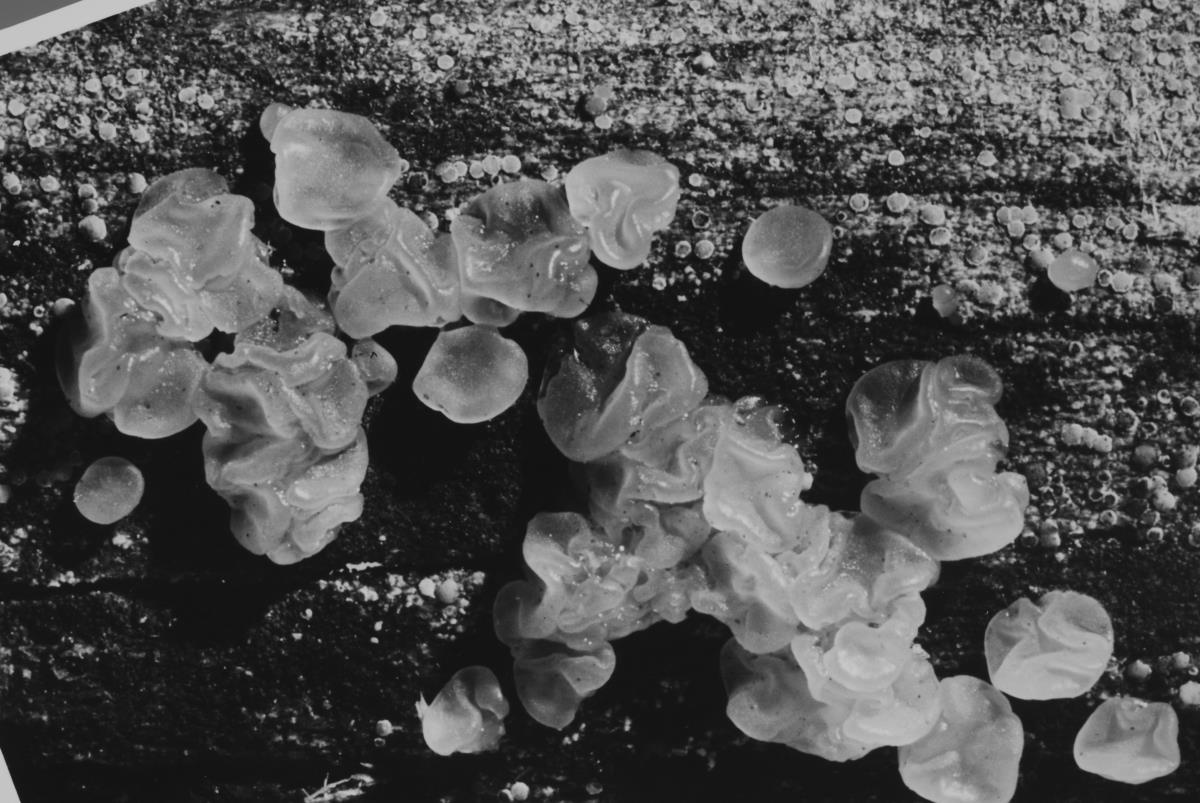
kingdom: Fungi
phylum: Basidiomycota
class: Dacrymycetes
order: Dacrymycetales
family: Dacrymycetaceae
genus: Dacrymyces
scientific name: Dacrymyces stillatus
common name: Common jelly spot
